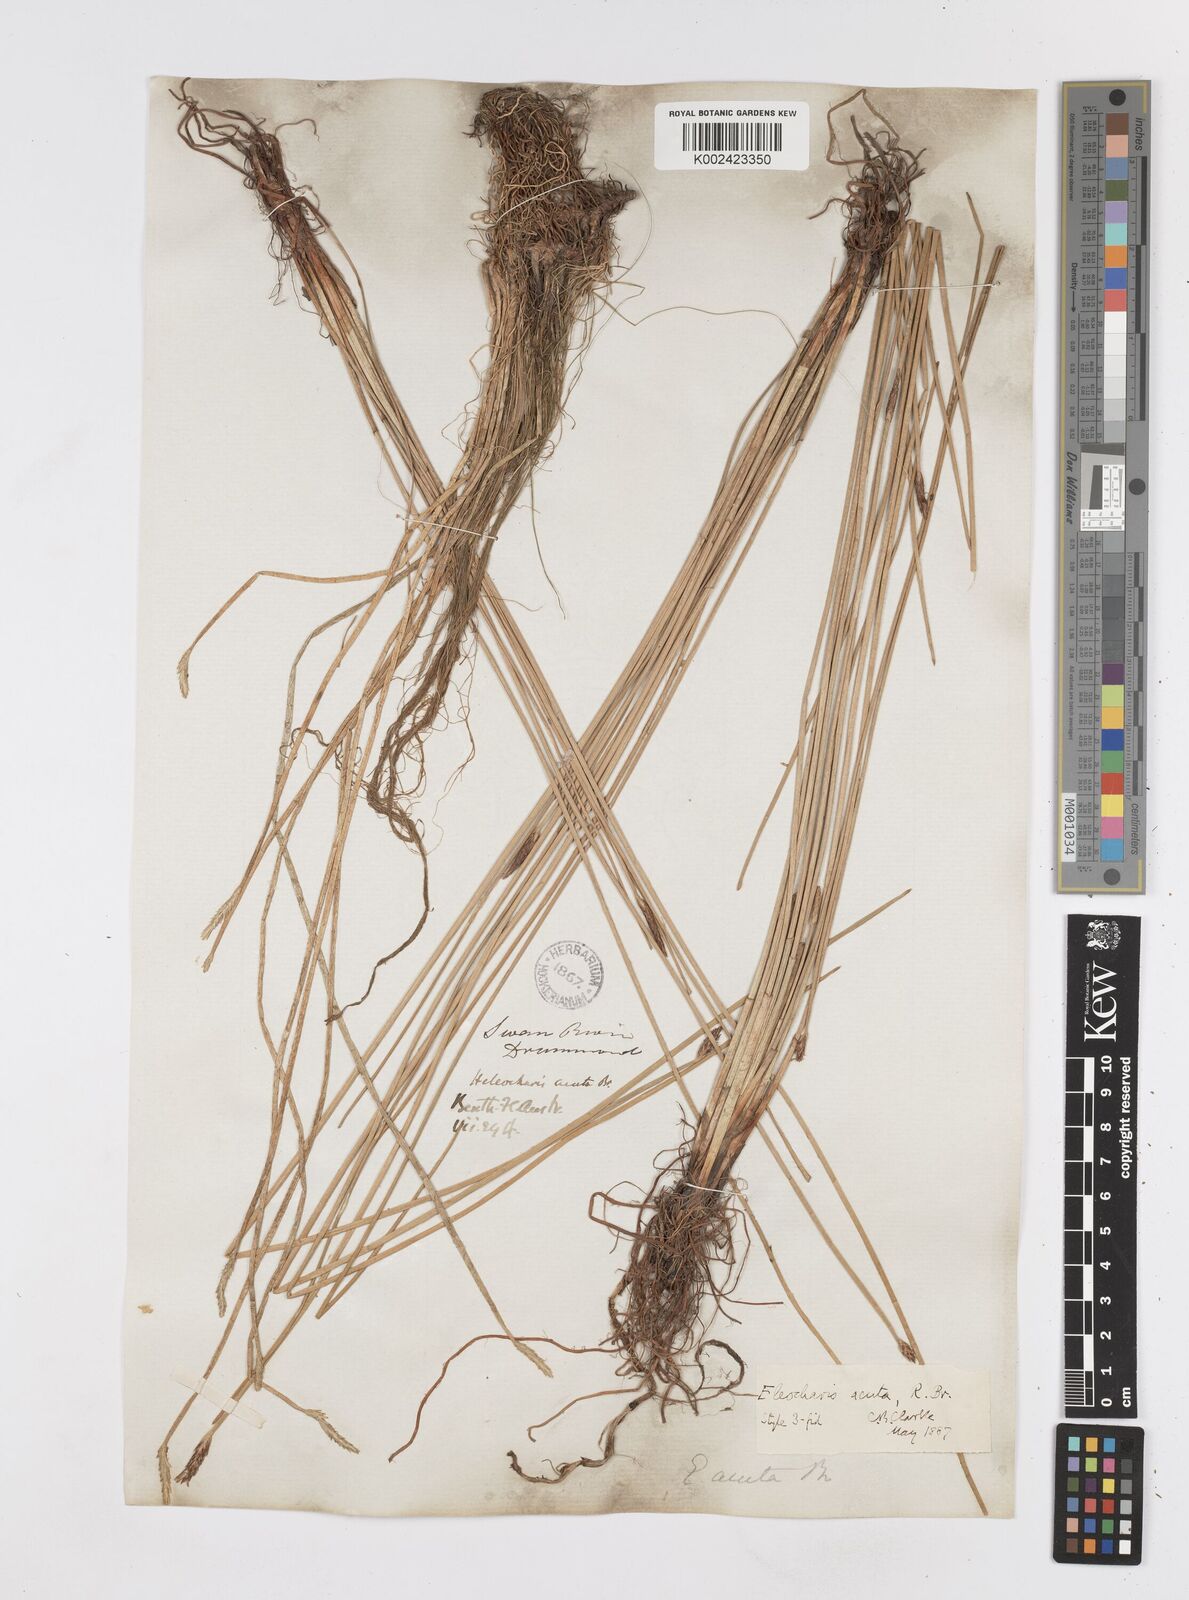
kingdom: Plantae
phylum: Tracheophyta
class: Liliopsida
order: Poales
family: Cyperaceae
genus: Eleocharis
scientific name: Eleocharis acuta
